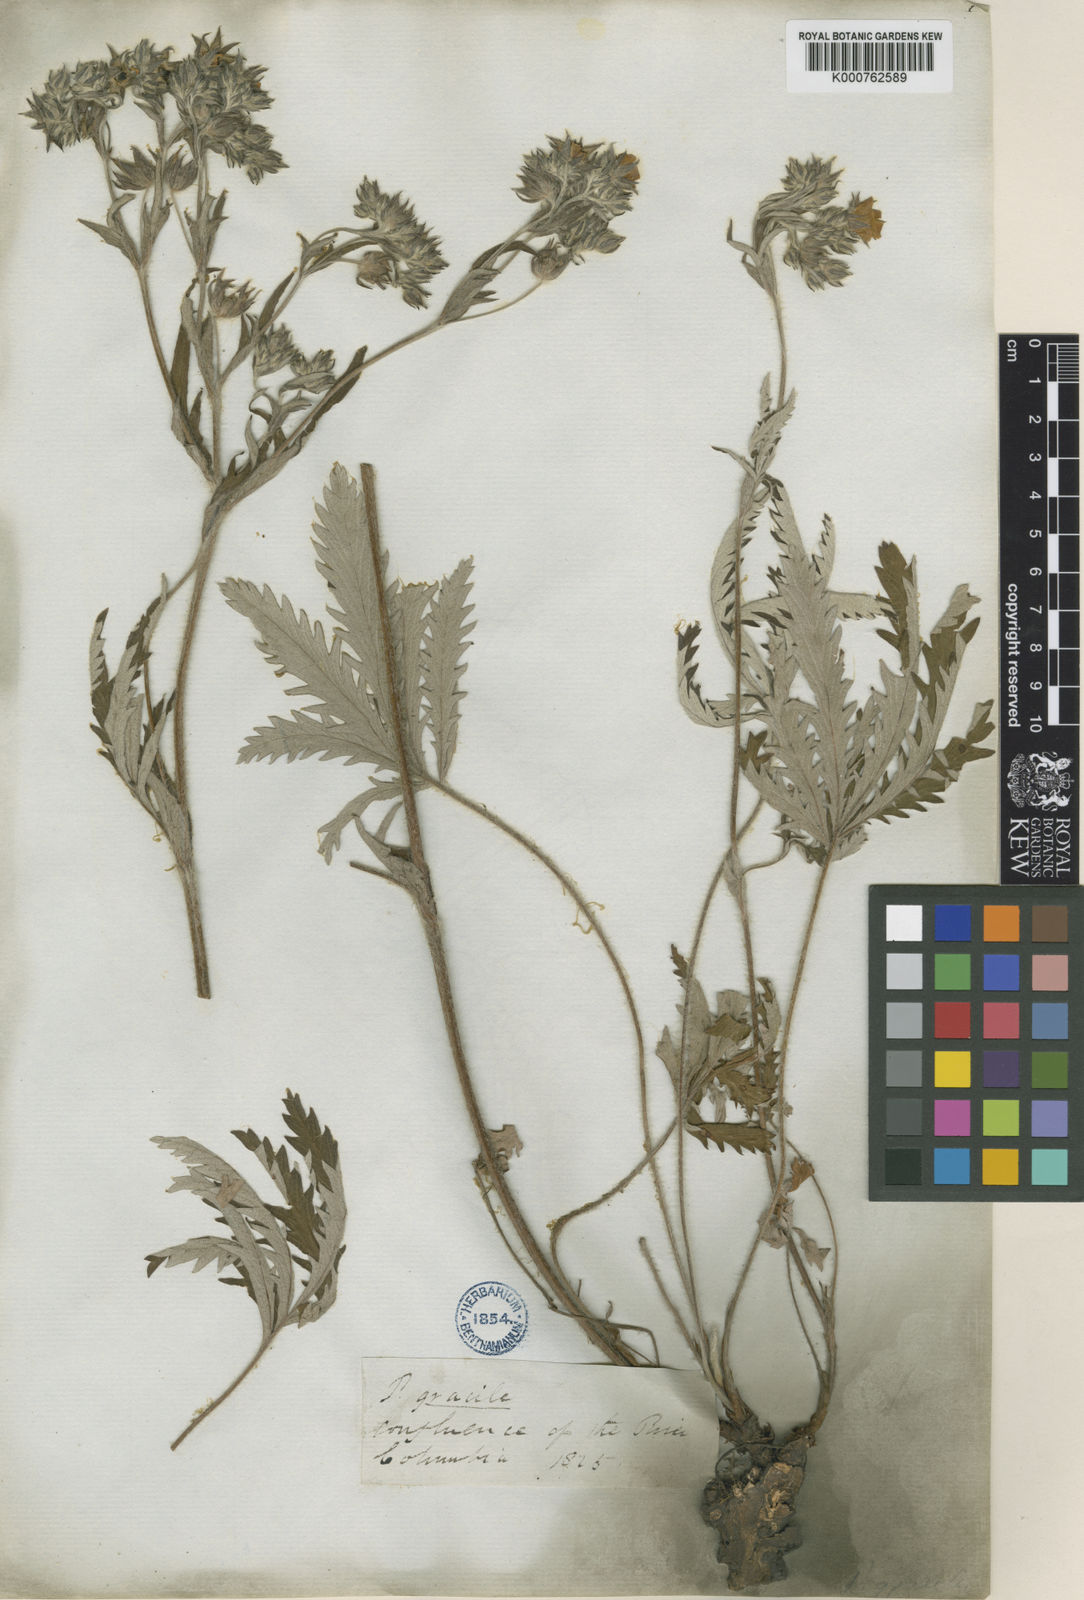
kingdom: Plantae
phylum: Tracheophyta
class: Magnoliopsida
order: Rosales
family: Rosaceae
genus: Potentilla
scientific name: Potentilla gracilis
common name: Graceful cinquefoil
